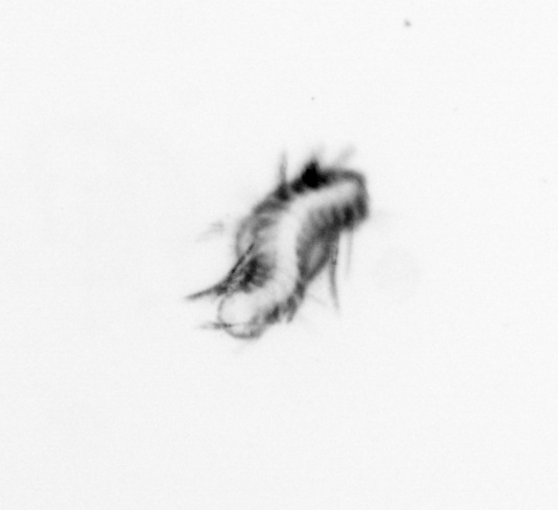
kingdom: Animalia
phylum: Annelida
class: Polychaeta
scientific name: Polychaeta
